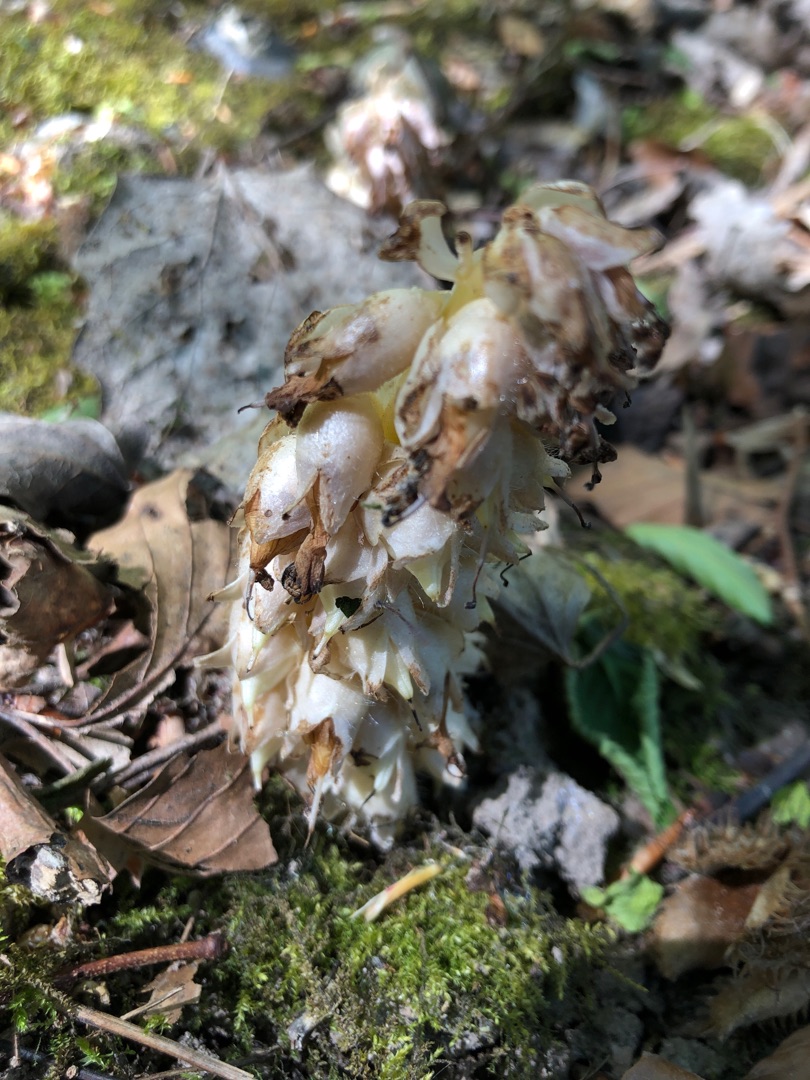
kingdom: Plantae
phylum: Tracheophyta
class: Magnoliopsida
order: Lamiales
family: Orobanchaceae
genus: Lathraea
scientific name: Lathraea squamaria
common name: Skælrod
